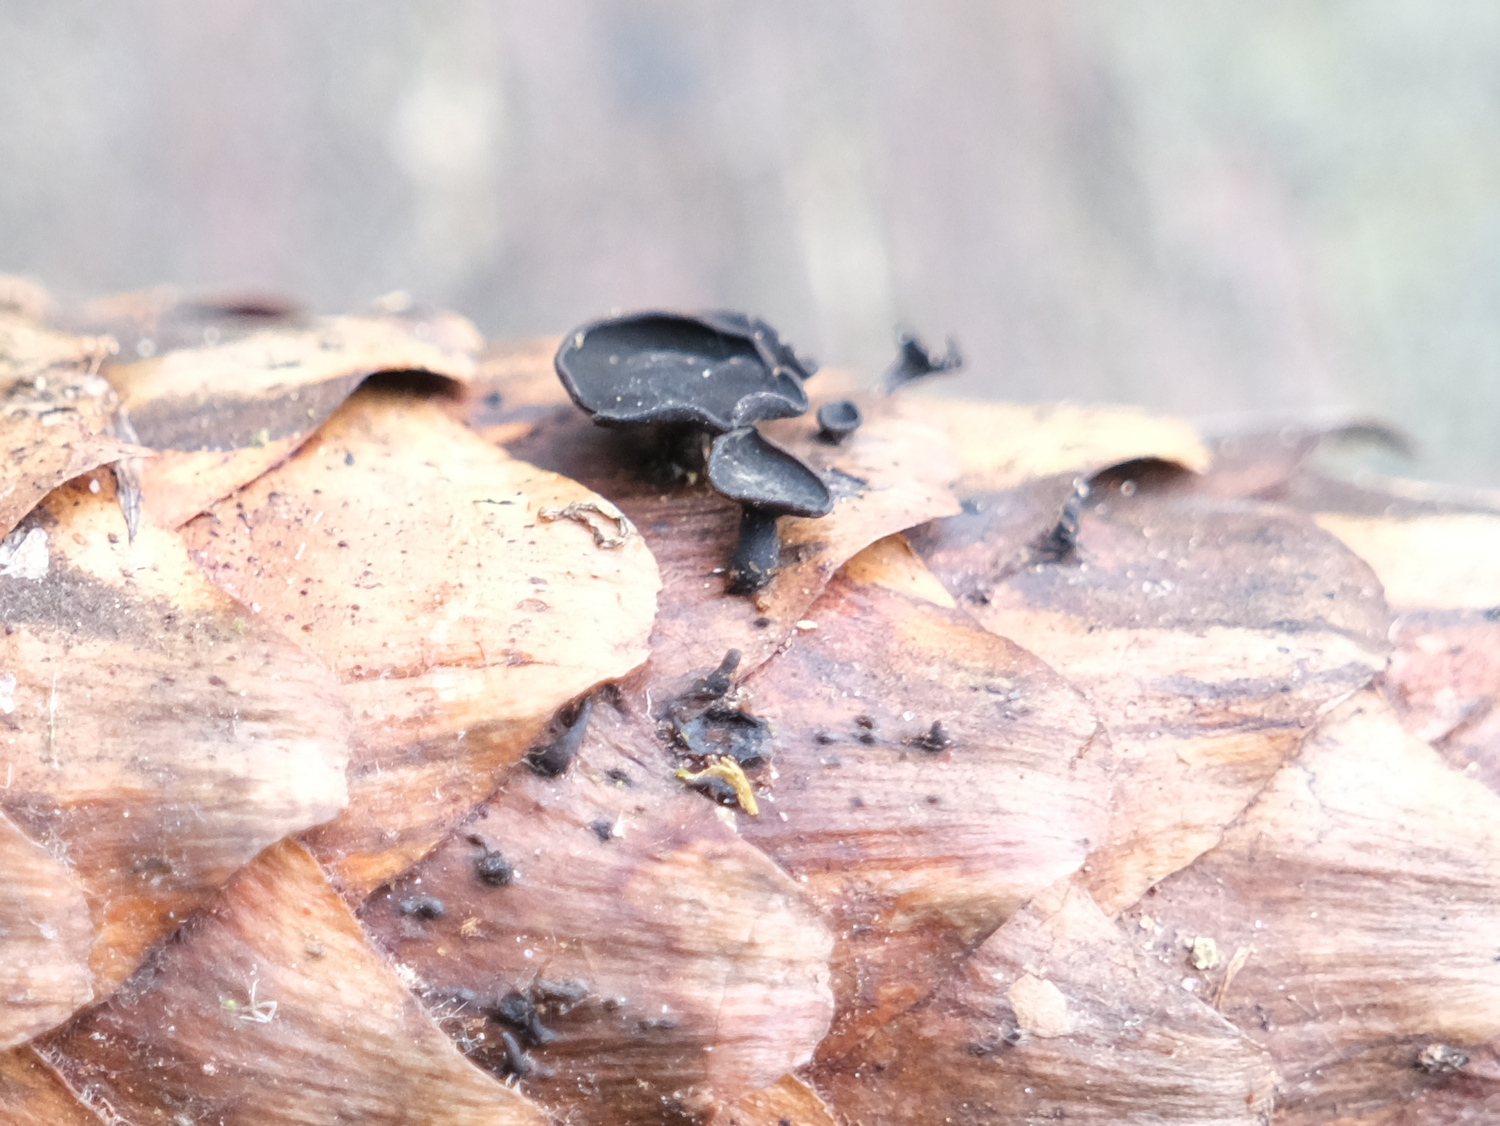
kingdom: Fungi
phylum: Ascomycota
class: Leotiomycetes
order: Helotiales
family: Rutstroemiaceae
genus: Rutstroemia
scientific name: Rutstroemia bulgarioides
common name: kogleskive
